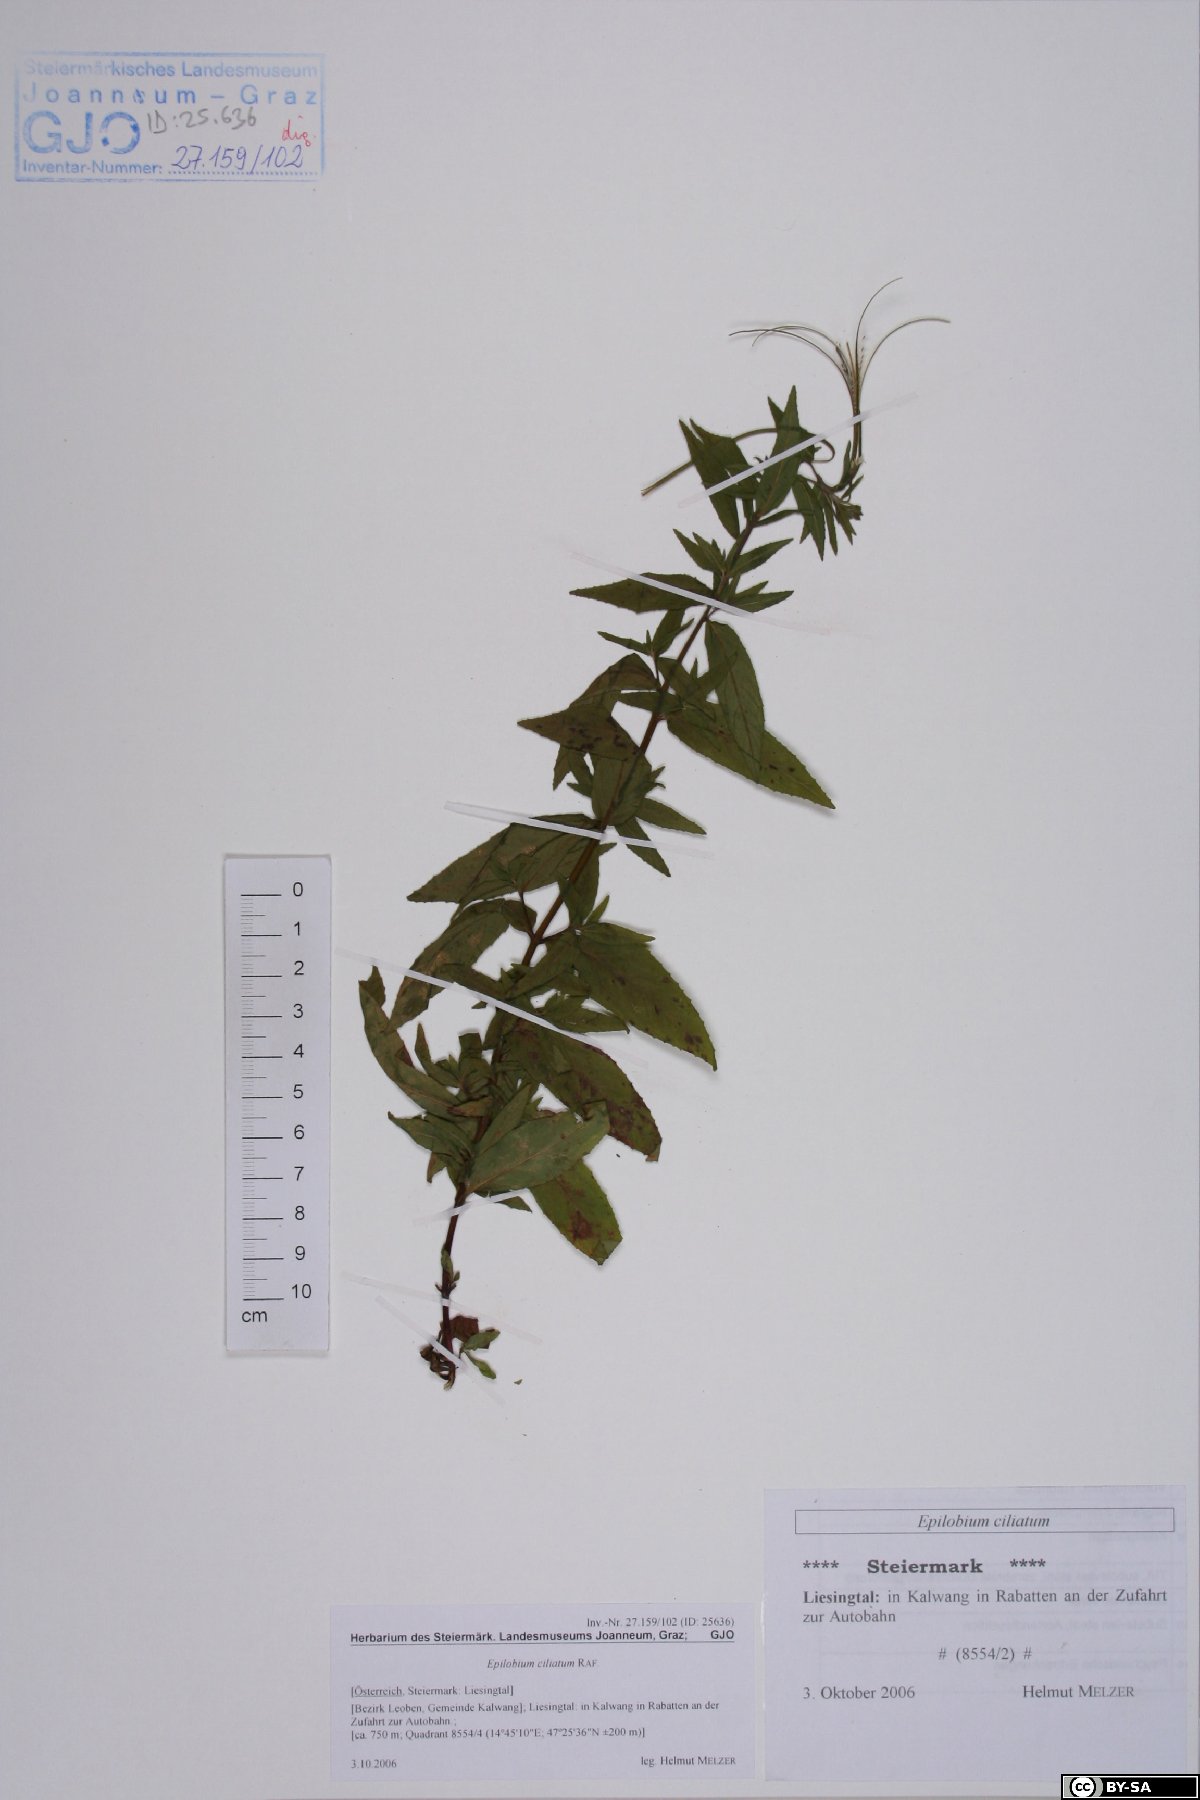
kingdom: Plantae
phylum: Tracheophyta
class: Magnoliopsida
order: Myrtales
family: Onagraceae
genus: Epilobium
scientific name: Epilobium ciliatum
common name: American willowherb
